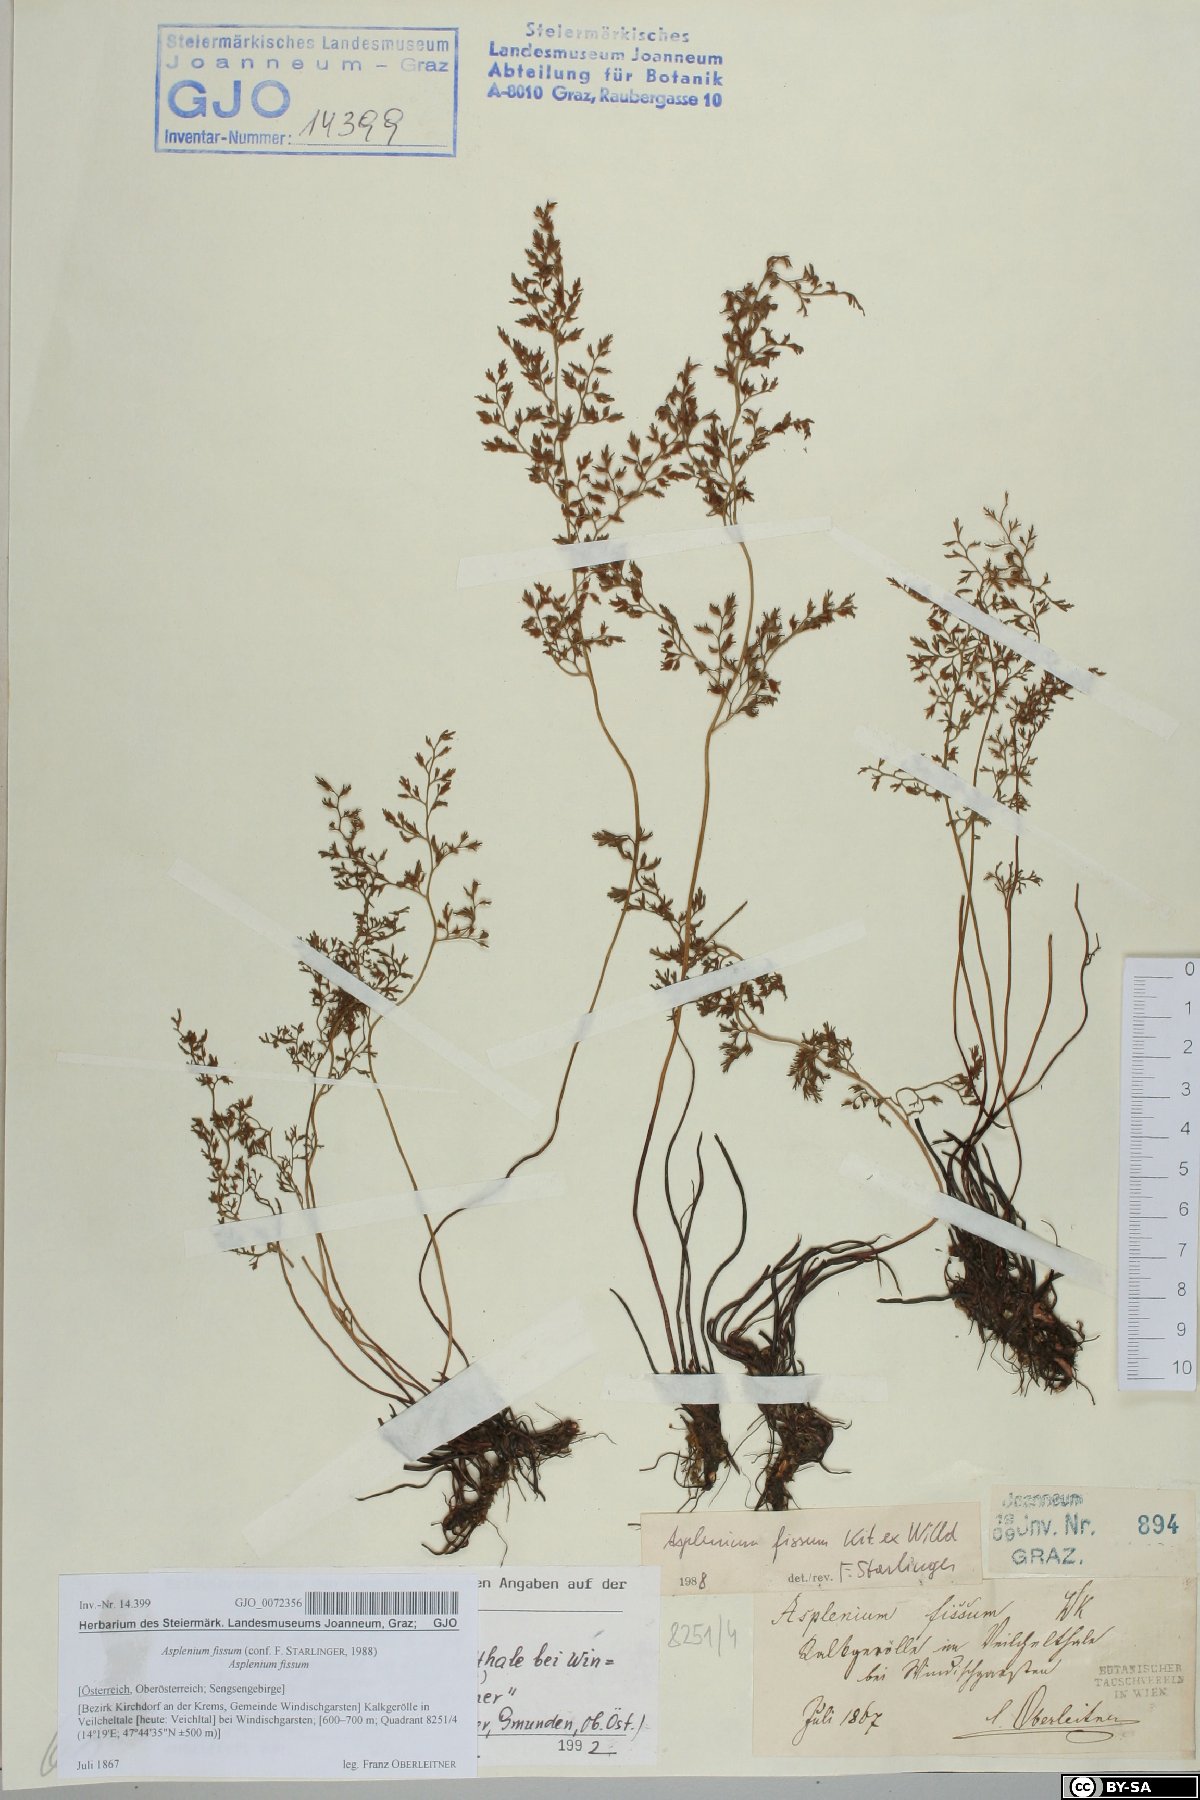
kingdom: Plantae
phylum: Tracheophyta
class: Polypodiopsida
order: Polypodiales
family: Aspleniaceae
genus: Asplenium
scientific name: Asplenium fissum
